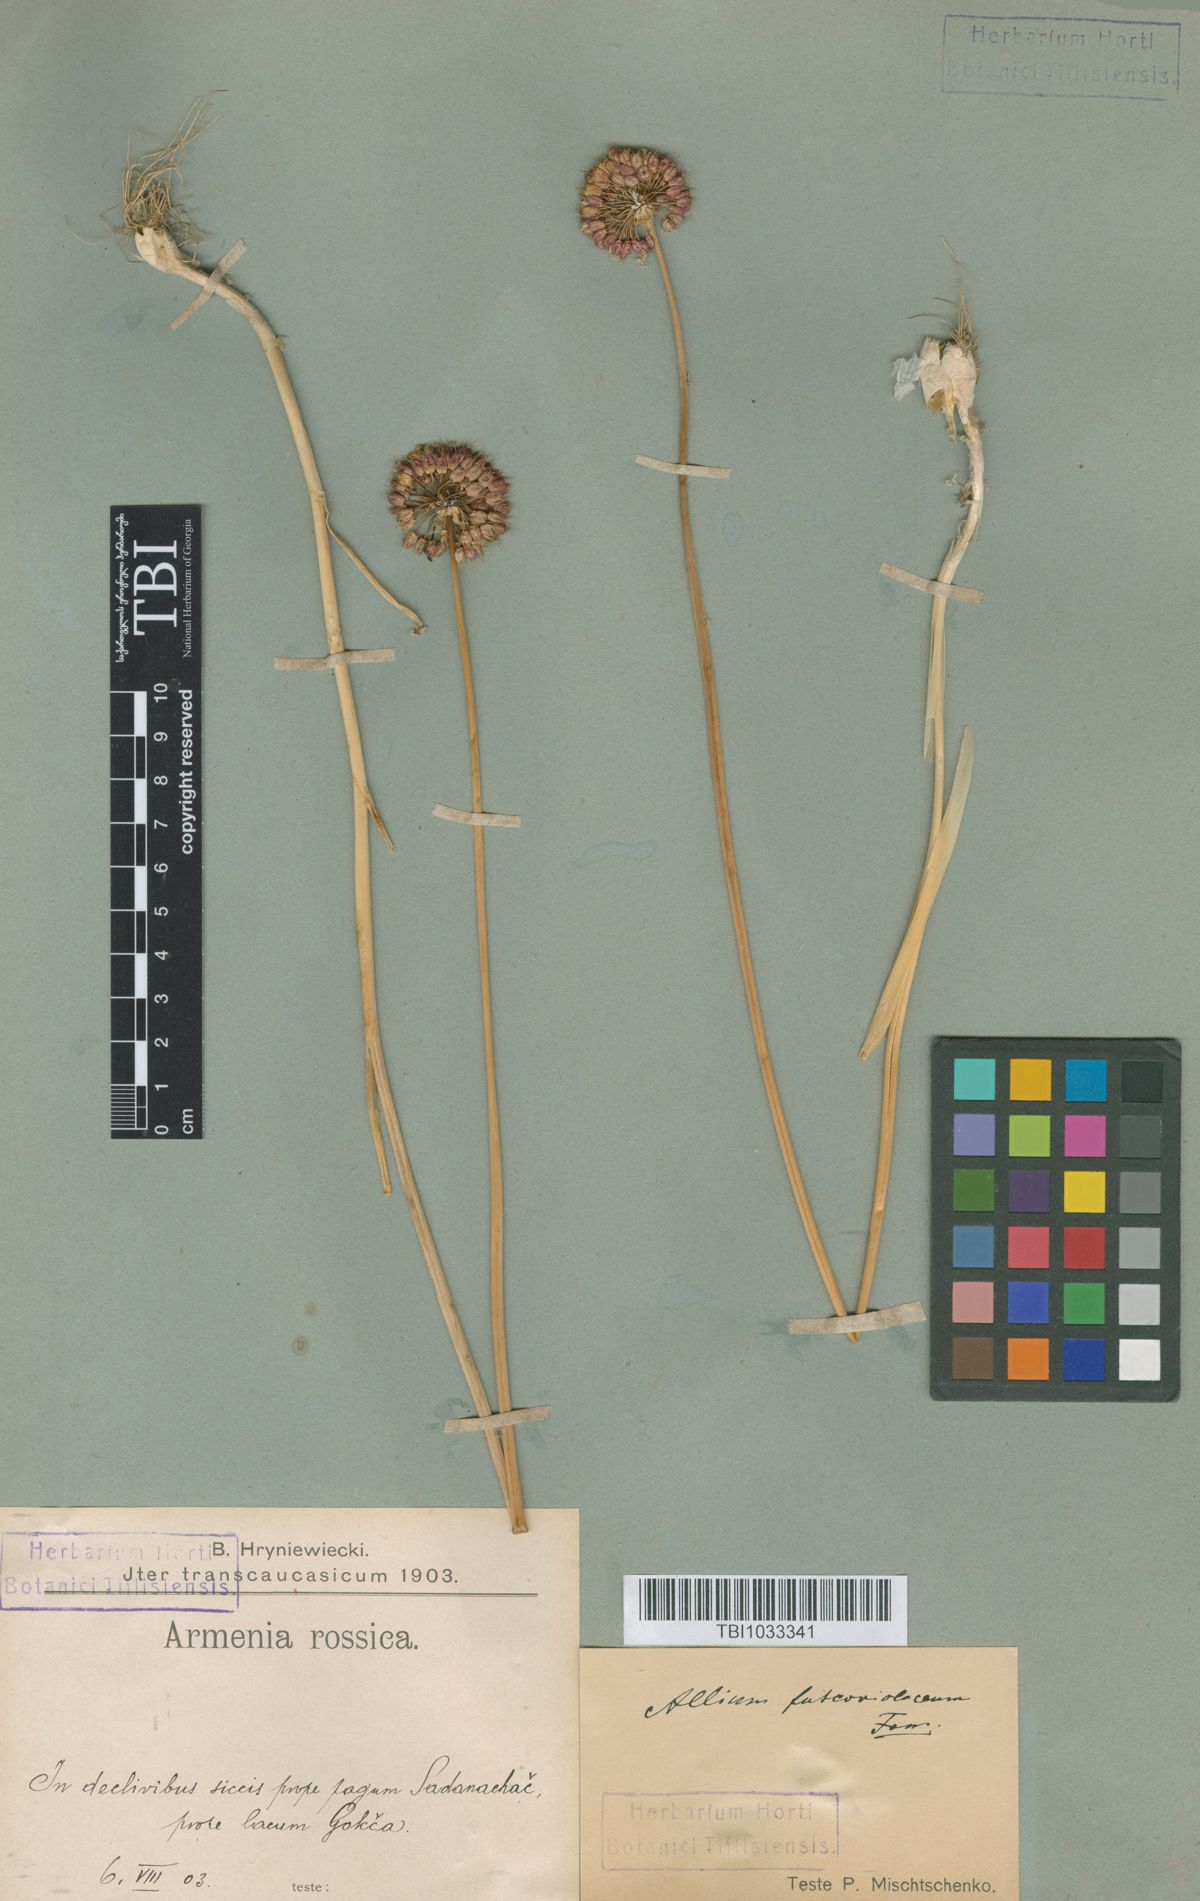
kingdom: Plantae
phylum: Tracheophyta
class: Liliopsida
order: Asparagales
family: Amaryllidaceae
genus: Allium
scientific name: Allium fuscoviolaceum
